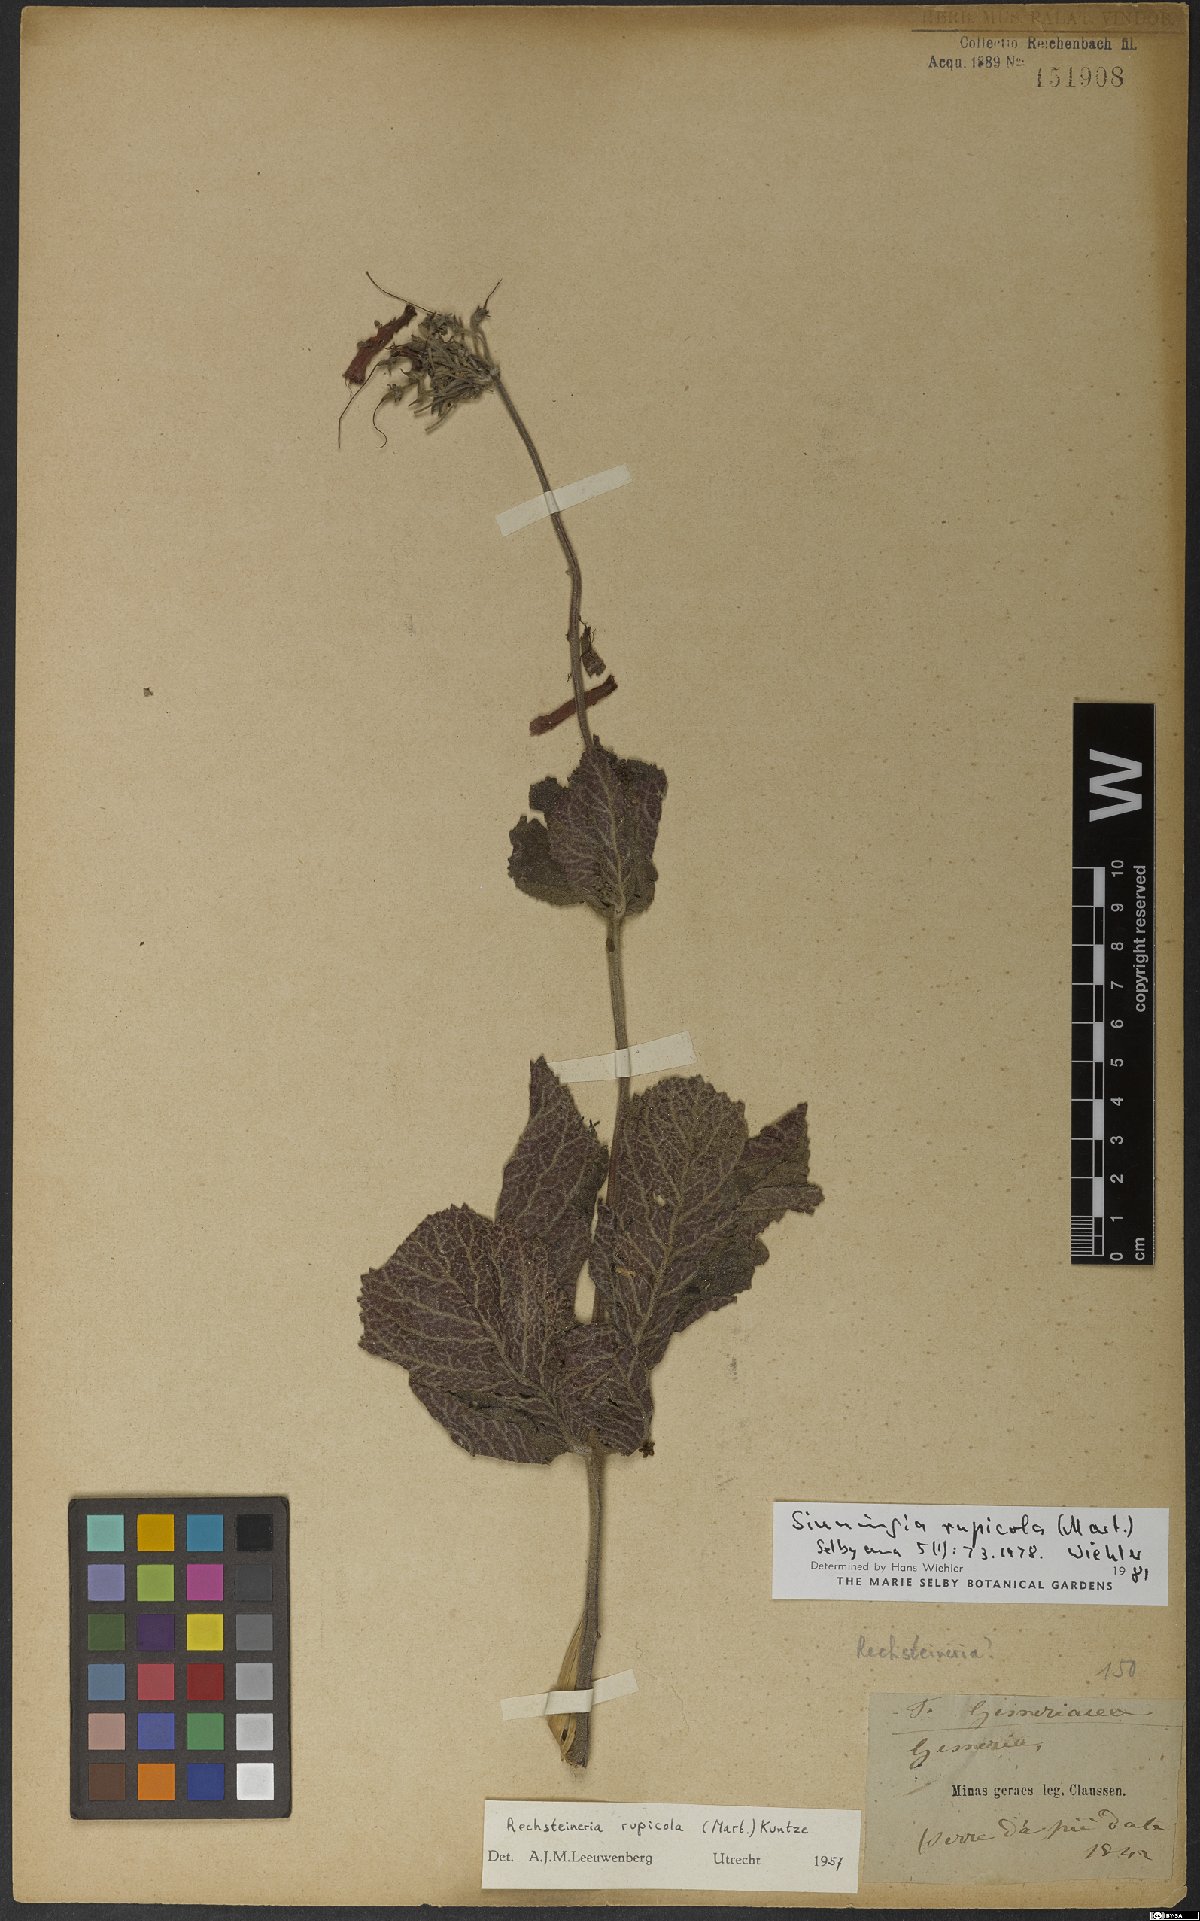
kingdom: Plantae
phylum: Tracheophyta
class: Magnoliopsida
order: Lamiales
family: Gesneriaceae
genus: Sinningia
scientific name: Sinningia rupicola
